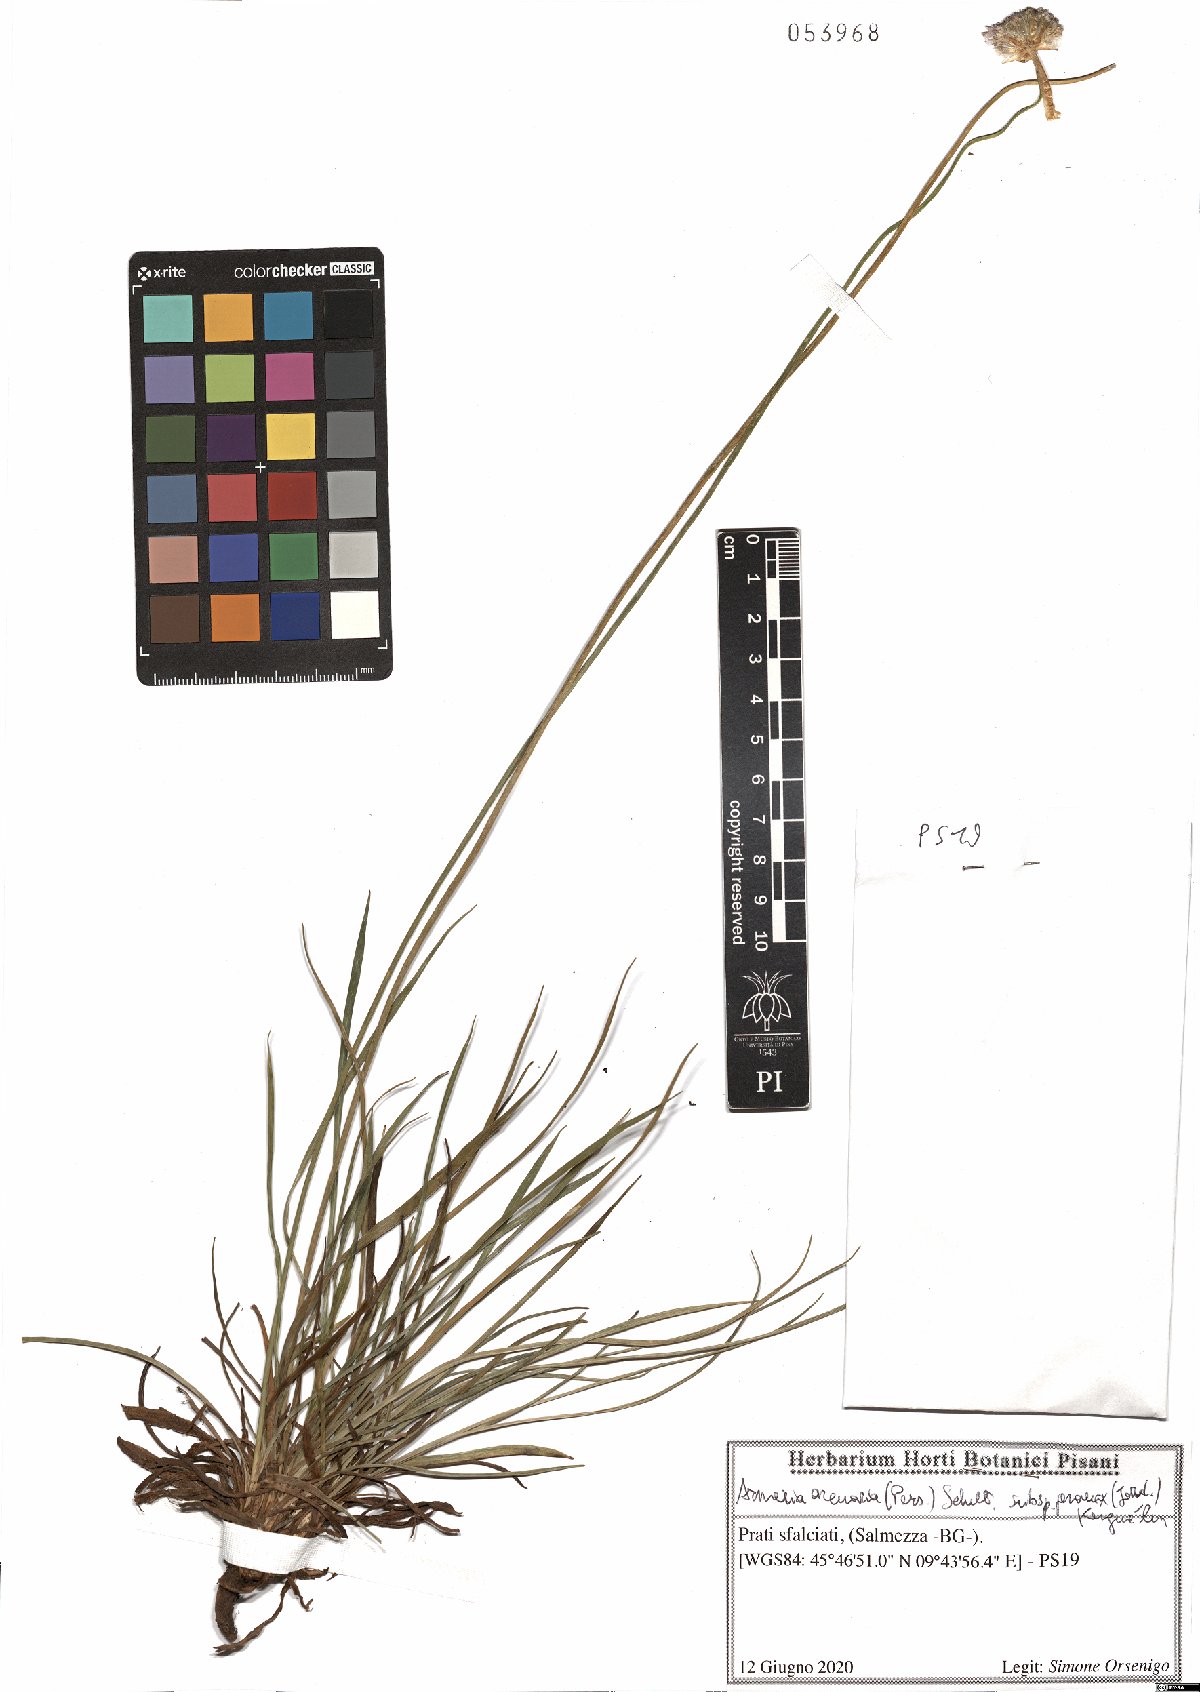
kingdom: Plantae
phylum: Tracheophyta
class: Magnoliopsida
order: Caryophyllales
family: Plumbaginaceae
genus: Armeria
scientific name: Armeria arenaria
